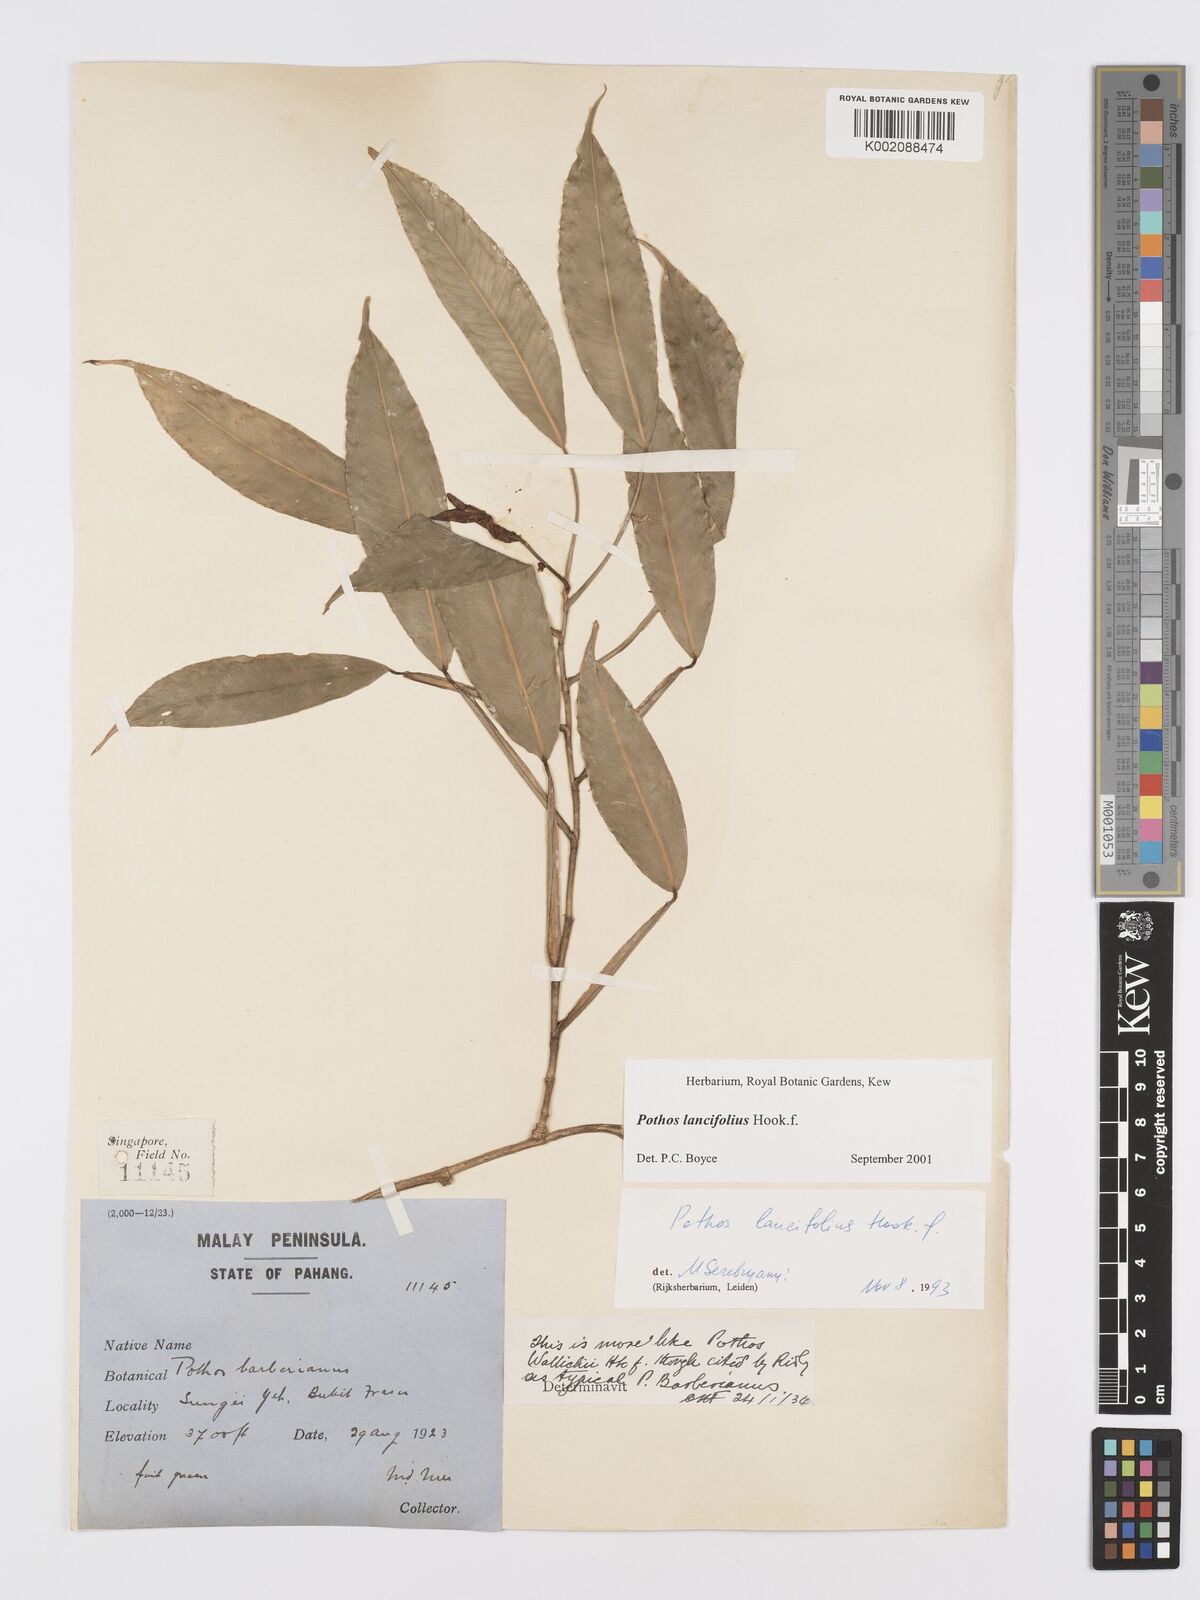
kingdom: Plantae
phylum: Tracheophyta
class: Liliopsida
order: Alismatales
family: Araceae
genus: Pothos
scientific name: Pothos lancifolius
